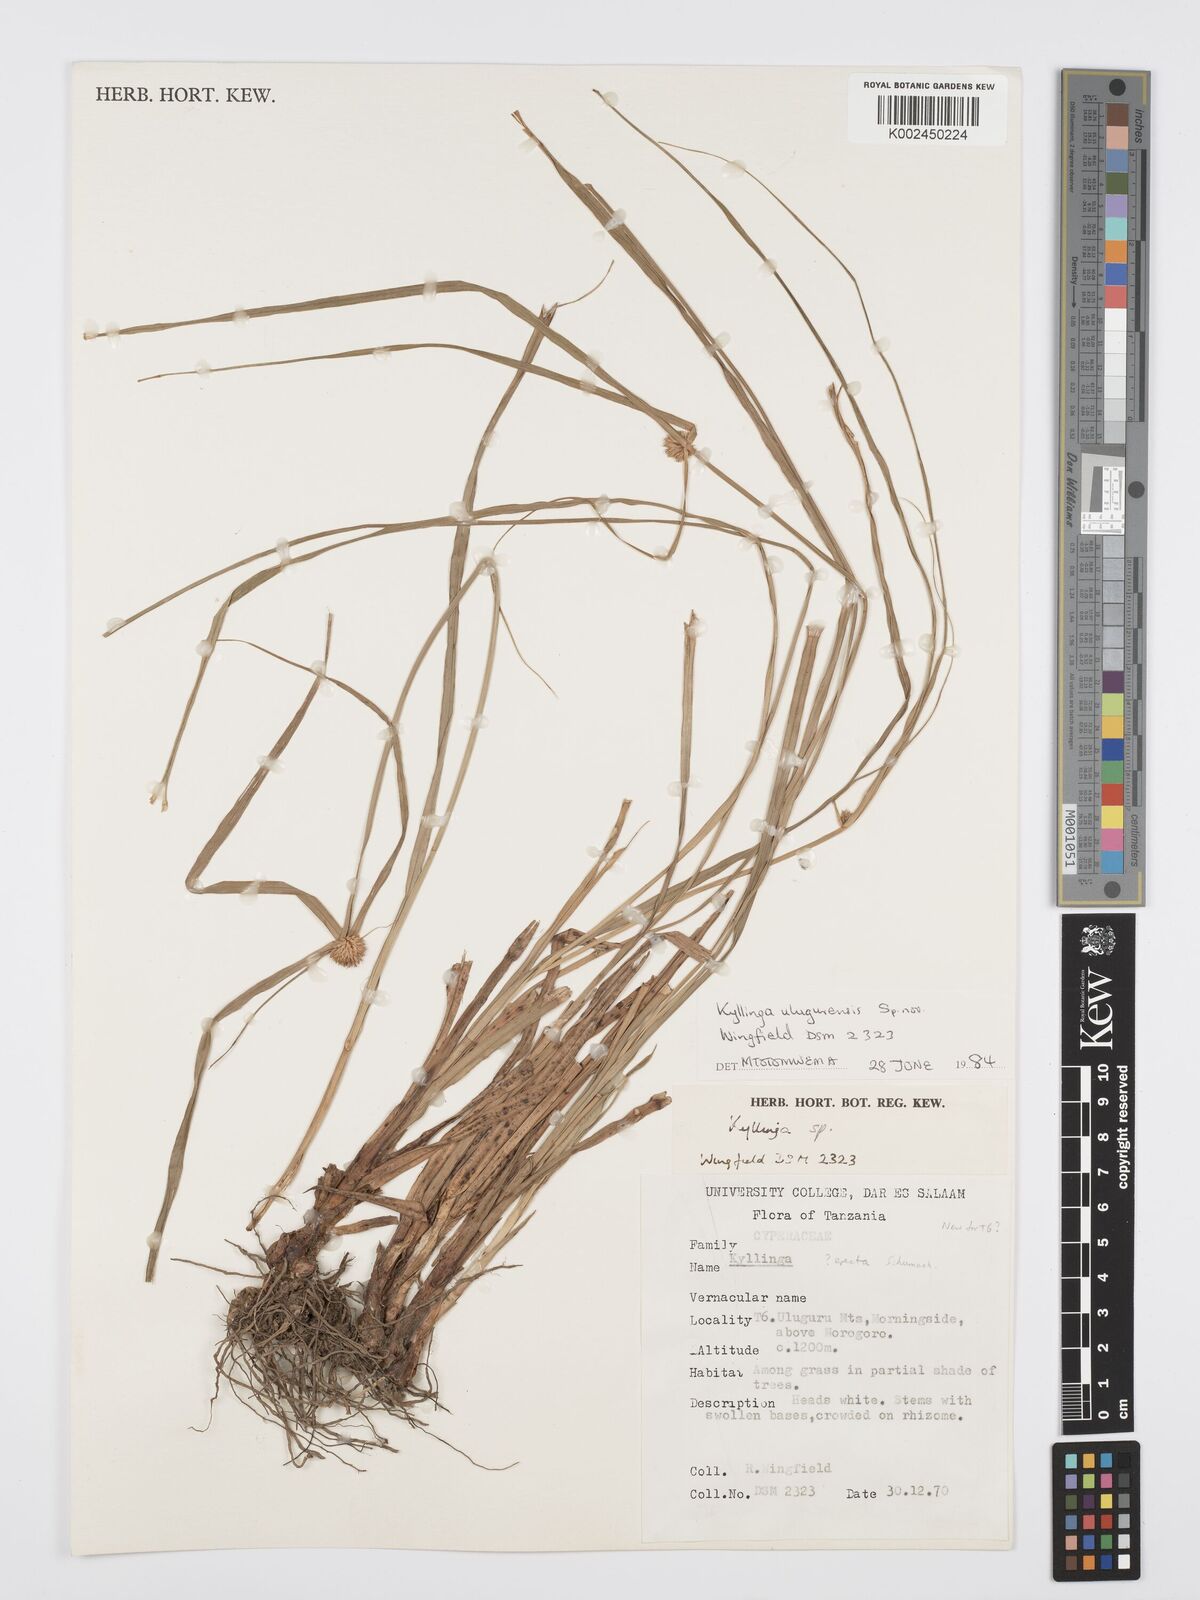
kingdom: Plantae
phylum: Tracheophyta
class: Liliopsida
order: Poales
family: Cyperaceae
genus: Cyperus
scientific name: Cyperus
